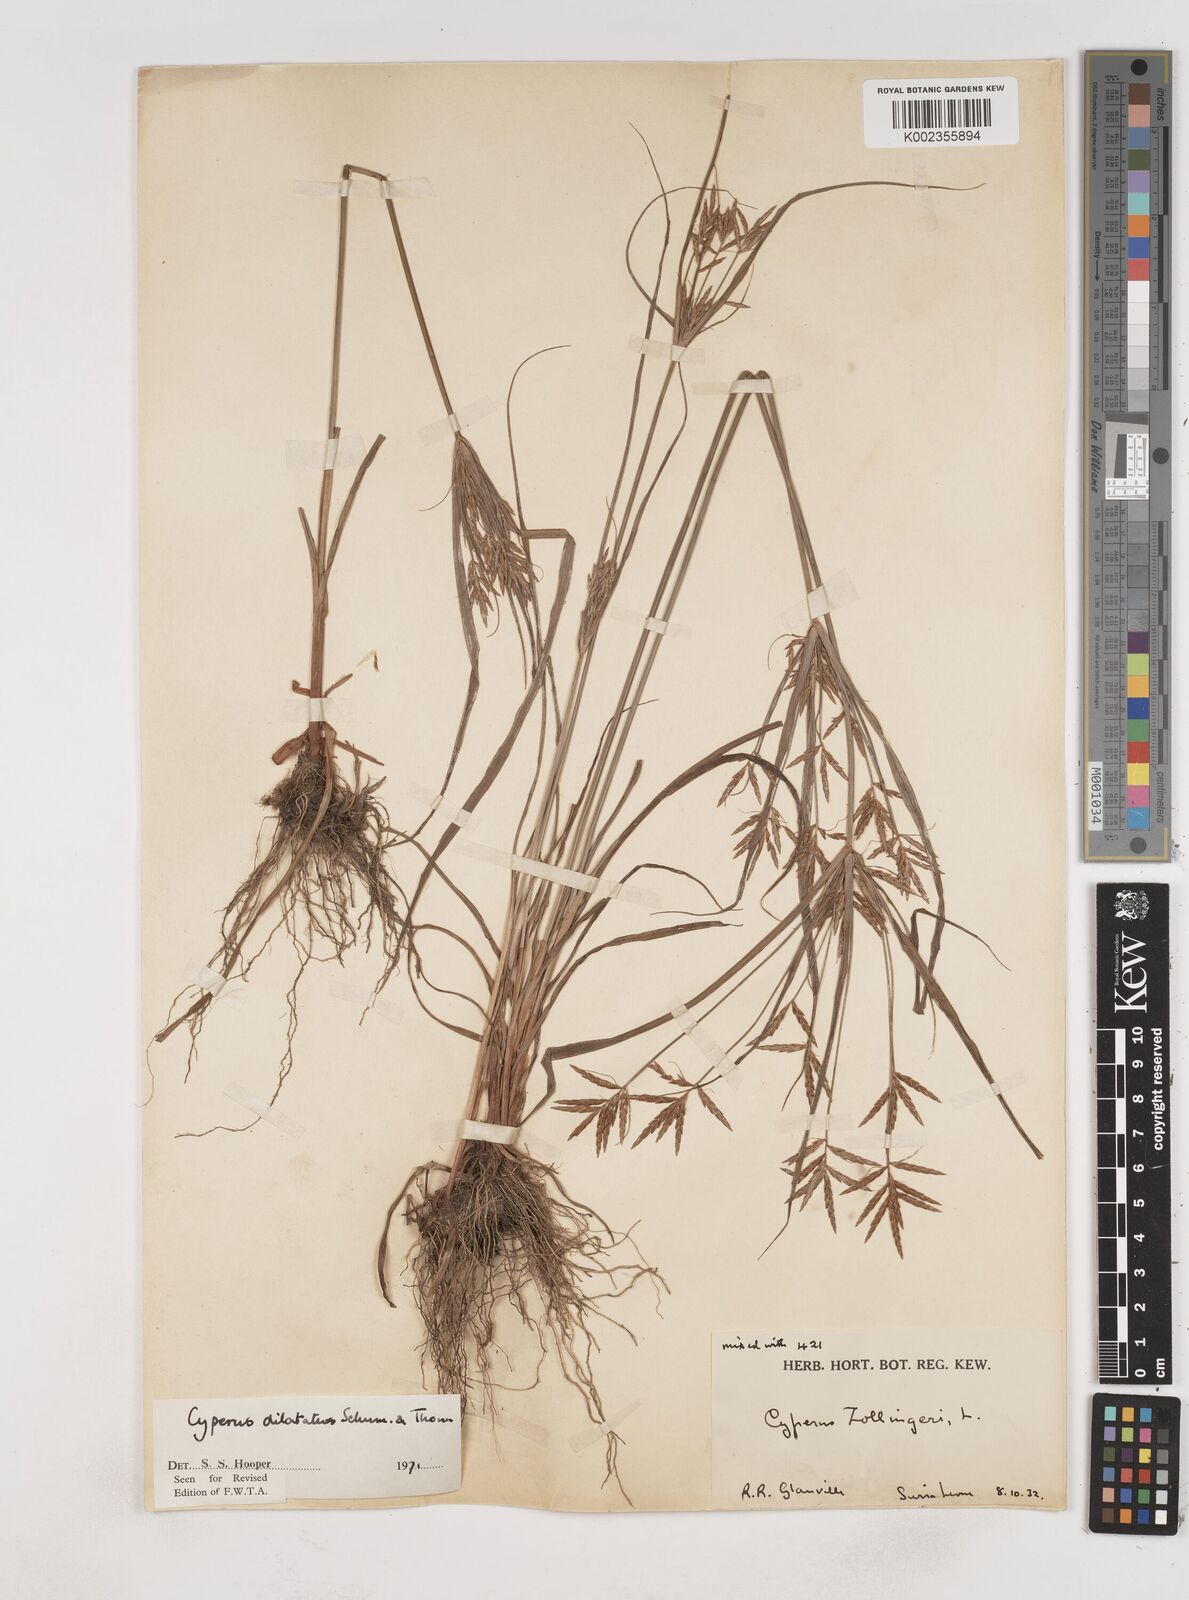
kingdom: Plantae
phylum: Tracheophyta
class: Liliopsida
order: Poales
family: Cyperaceae
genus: Cyperus
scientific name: Cyperus dilatatus
